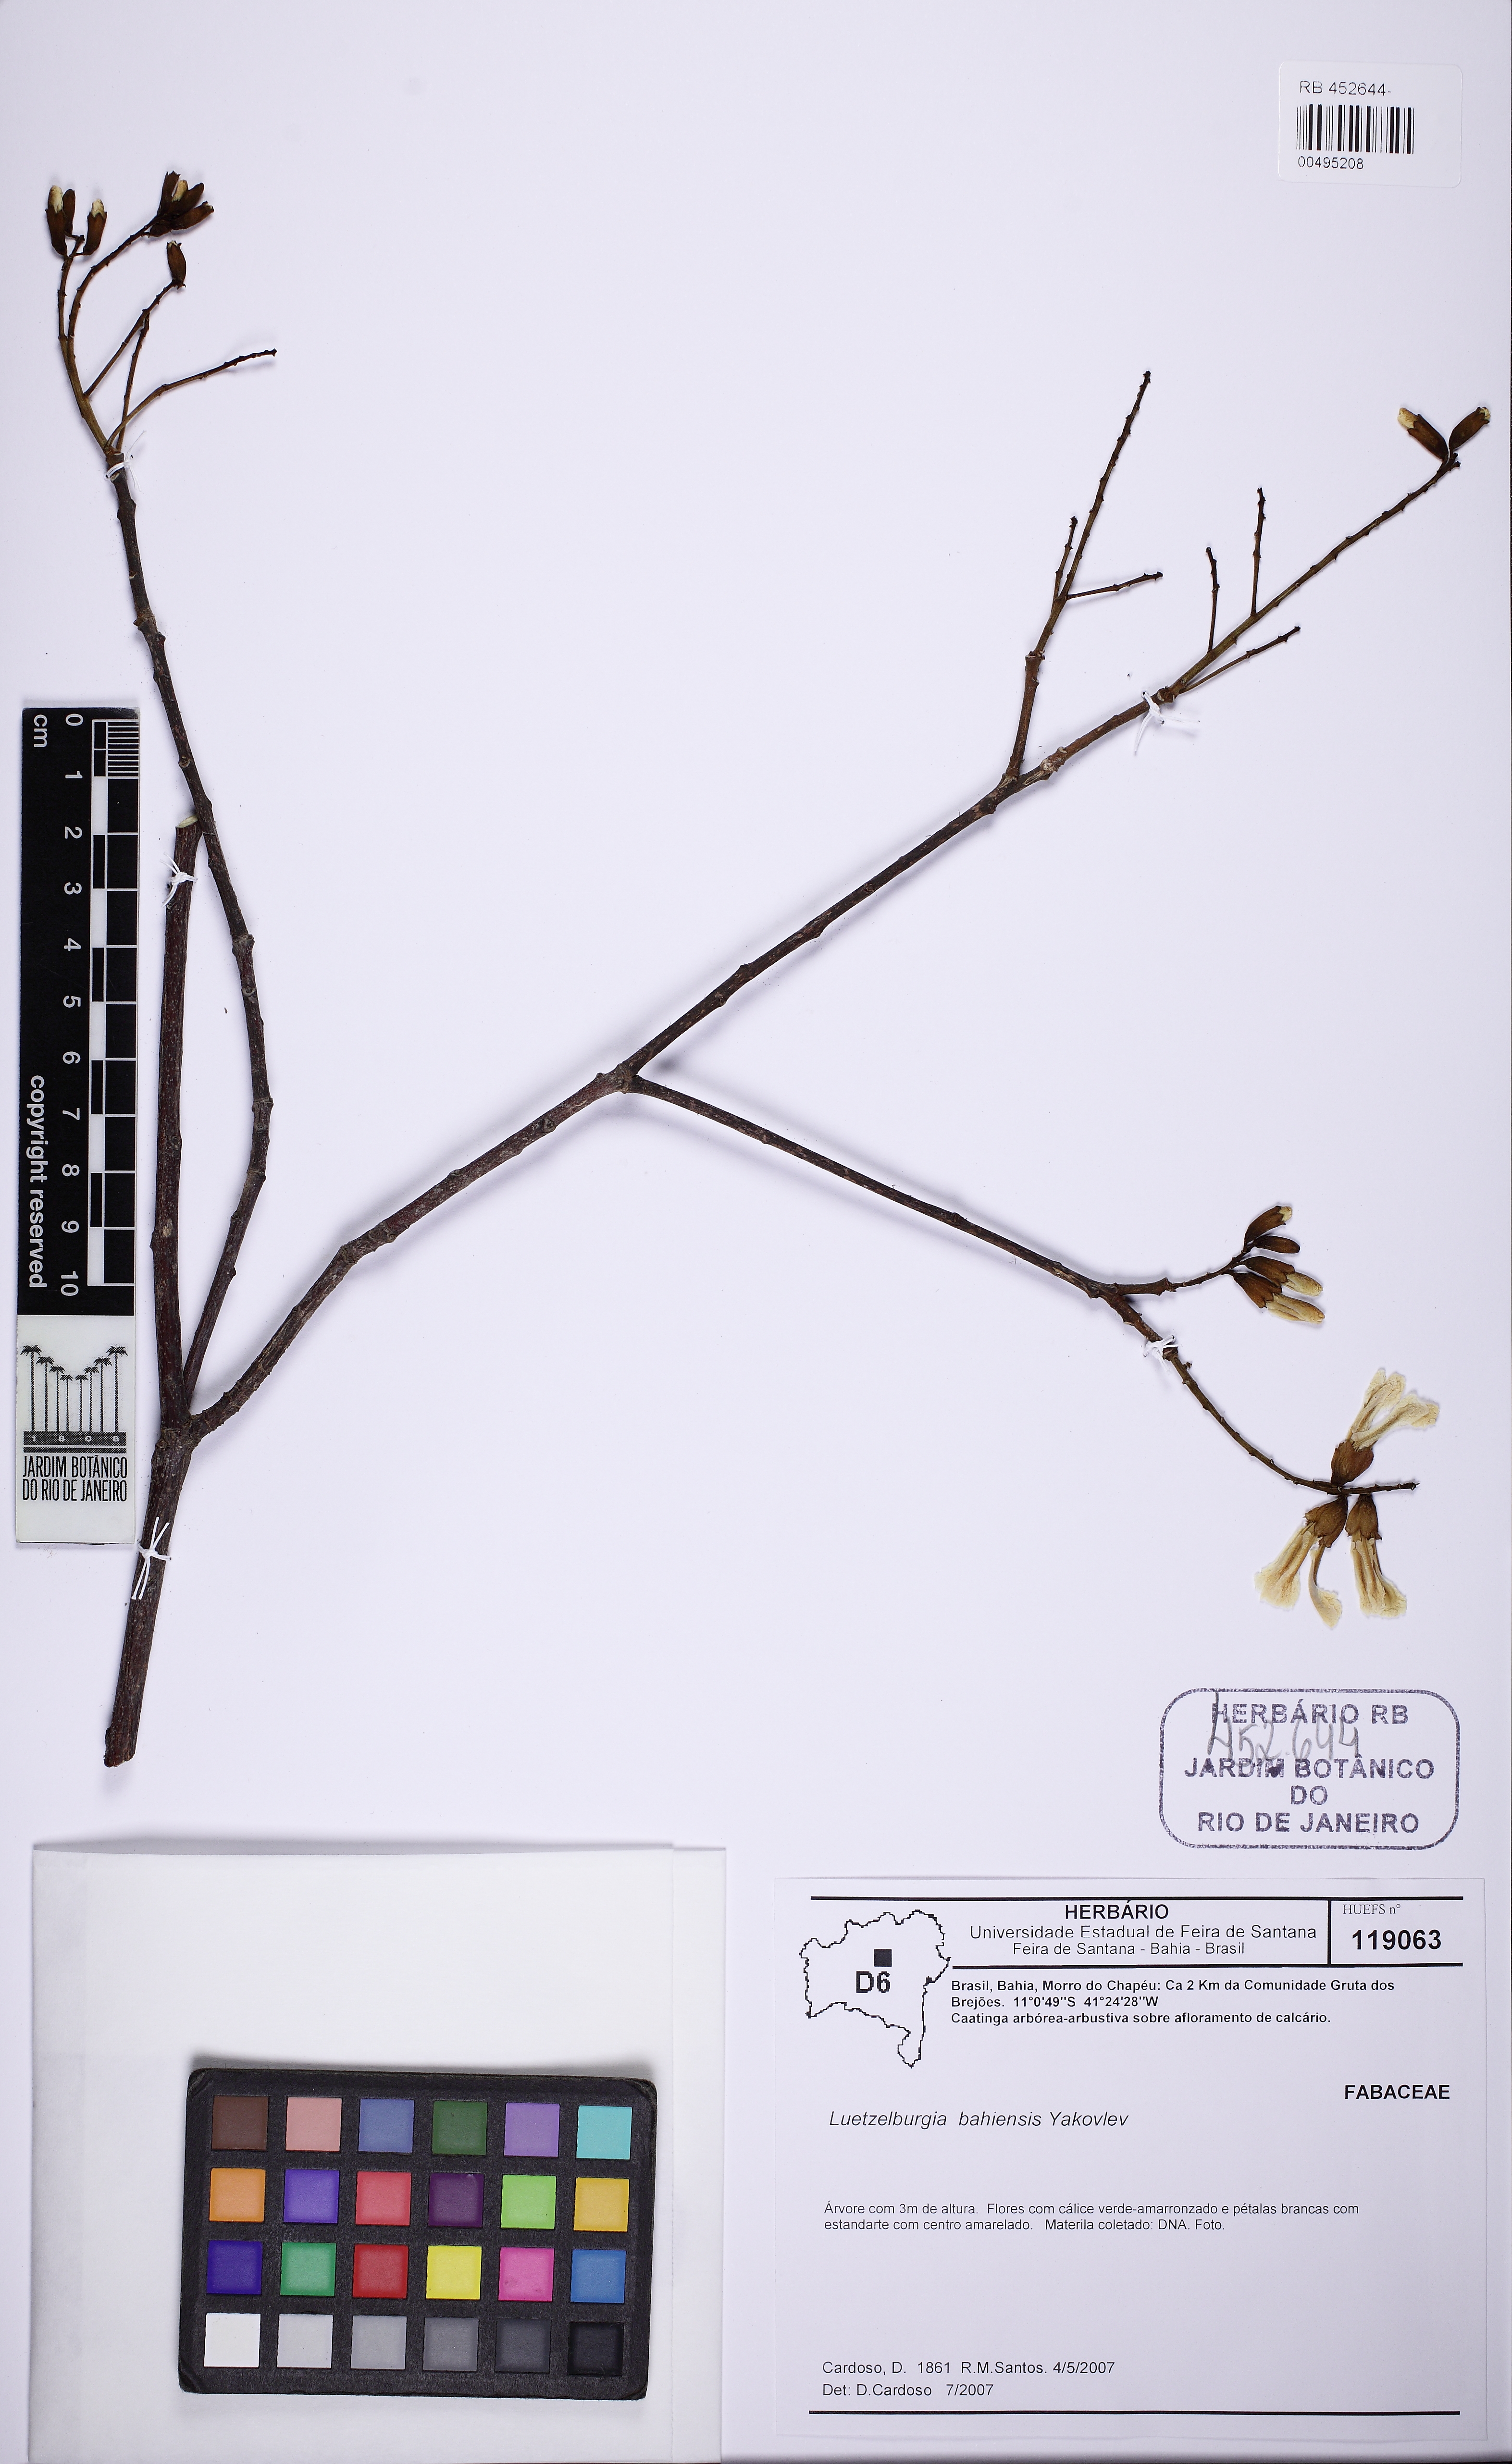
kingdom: Plantae
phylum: Tracheophyta
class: Magnoliopsida
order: Fabales
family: Fabaceae
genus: Luetzelburgia
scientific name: Luetzelburgia bahiensis
